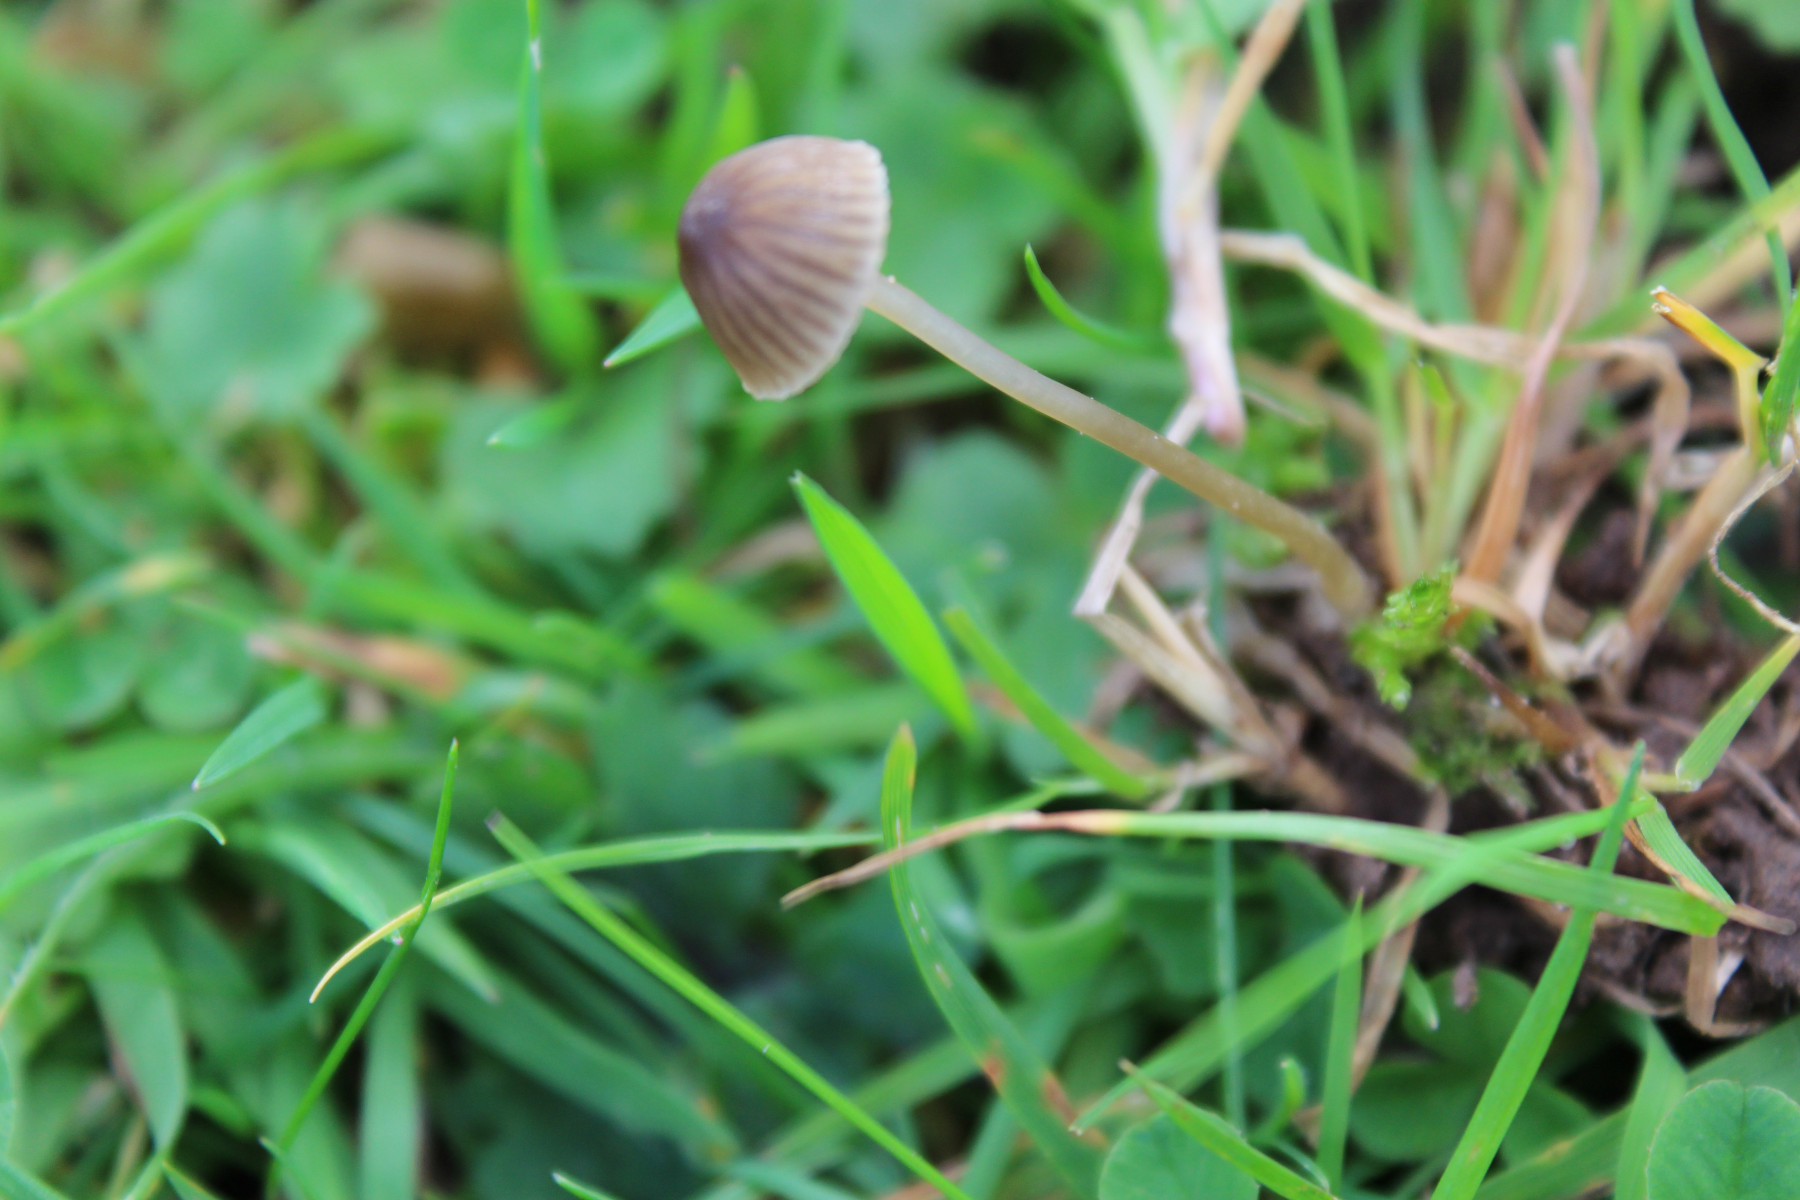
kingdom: Fungi
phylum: Basidiomycota
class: Agaricomycetes
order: Agaricales
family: Mycenaceae
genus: Mycena
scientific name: Mycena
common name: huesvamp
